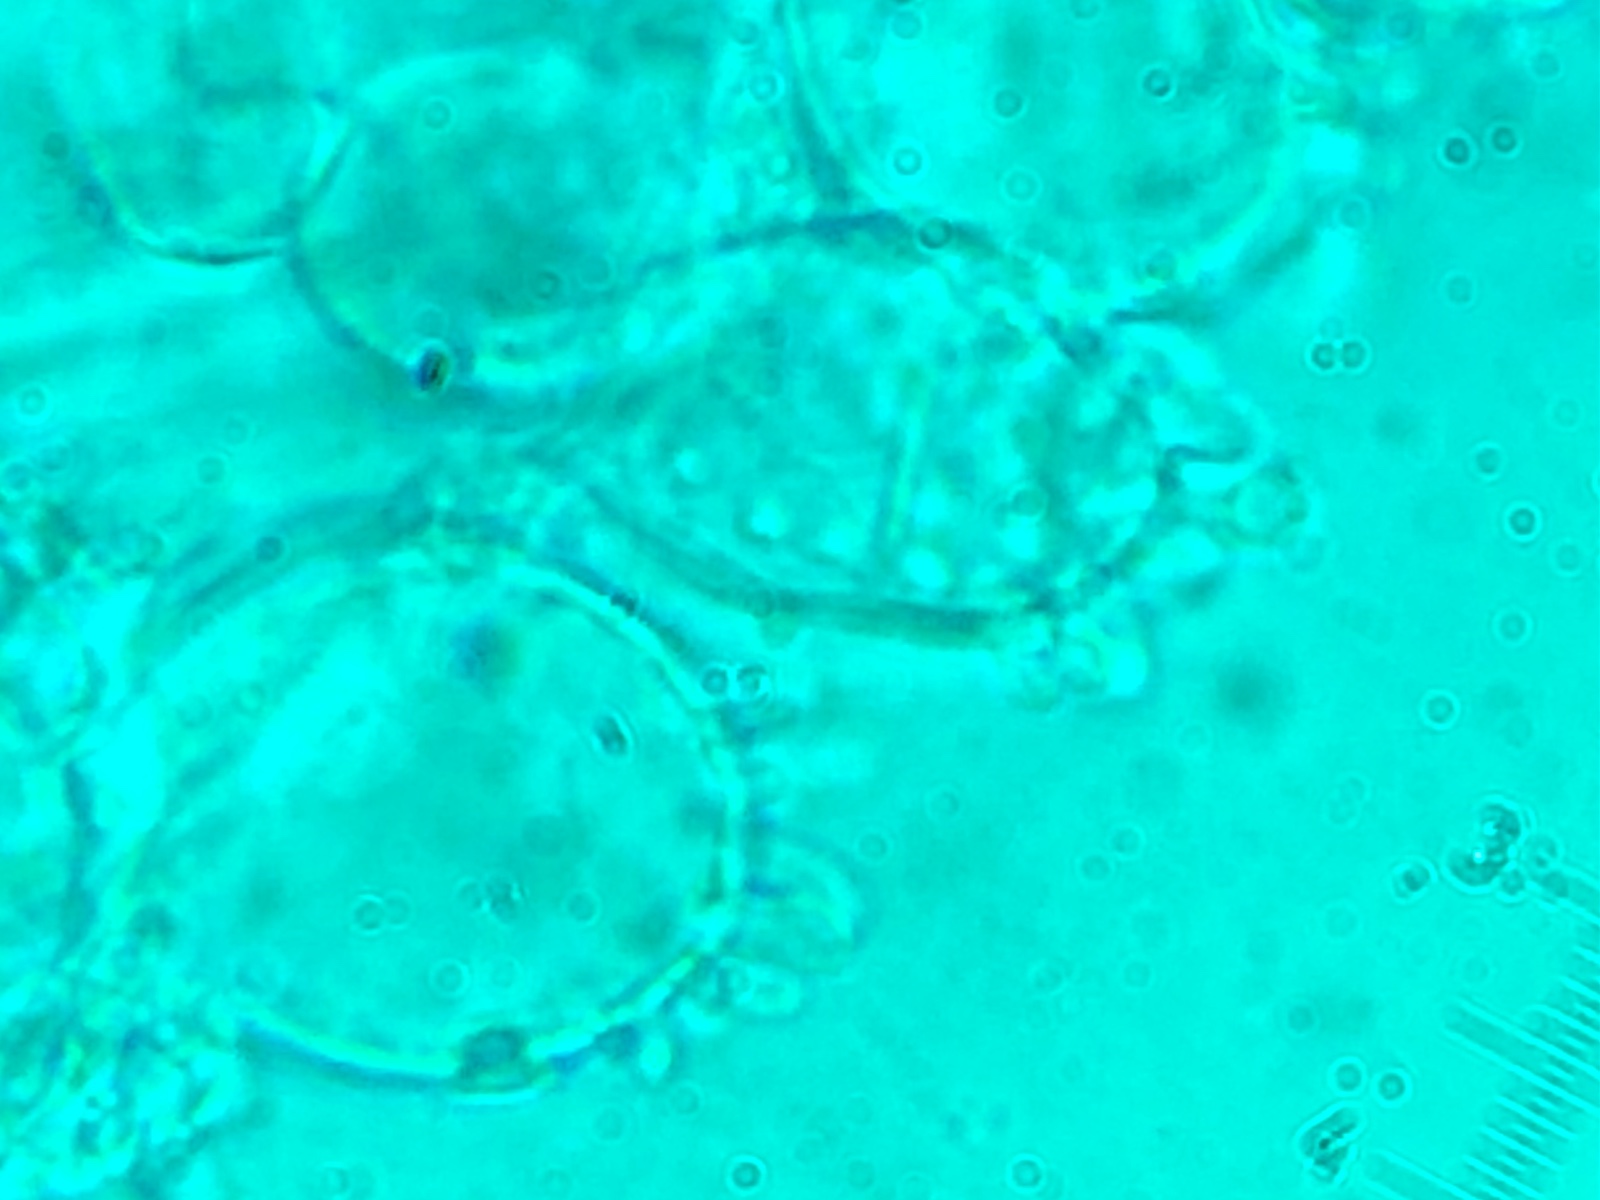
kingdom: Fungi
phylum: Basidiomycota
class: Agaricomycetes
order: Agaricales
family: Mycenaceae
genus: Mycena
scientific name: Mycena xantholeuca
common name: cremehvid huesvamp
